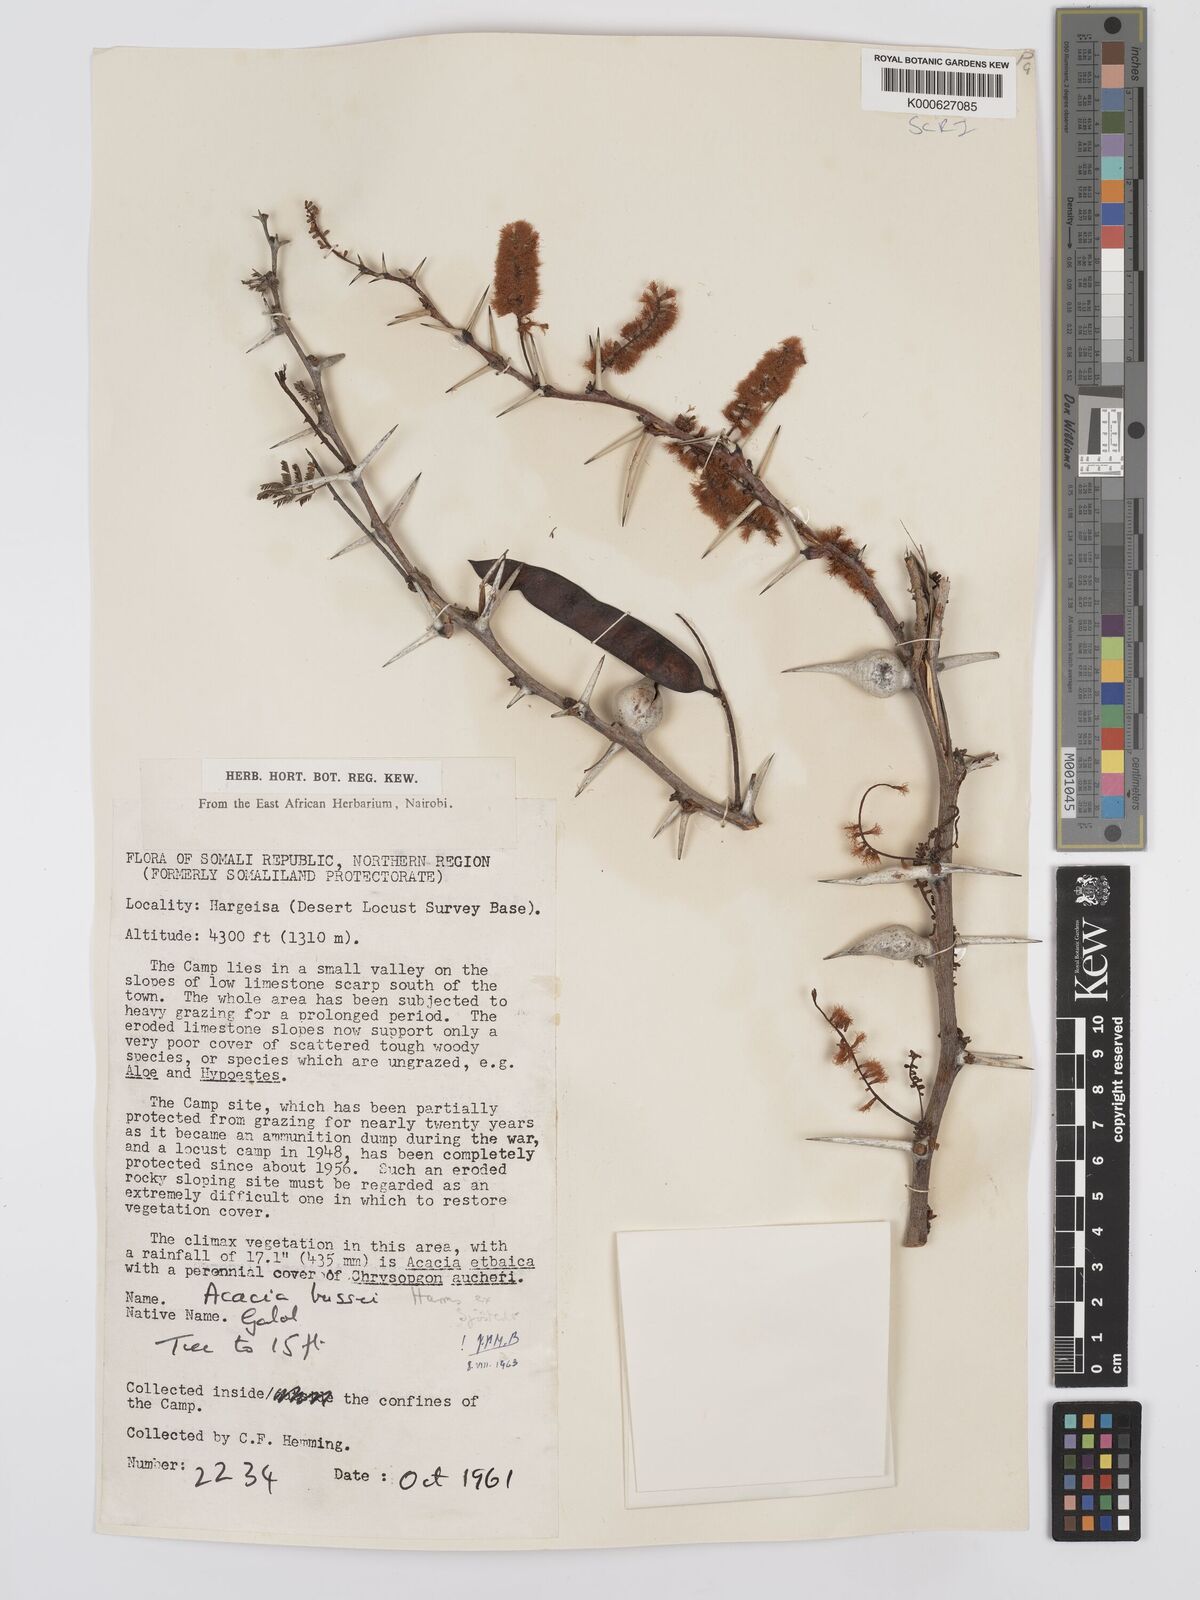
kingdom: Plantae
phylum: Tracheophyta
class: Magnoliopsida
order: Fabales
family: Fabaceae
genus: Vachellia
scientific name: Vachellia bussei
